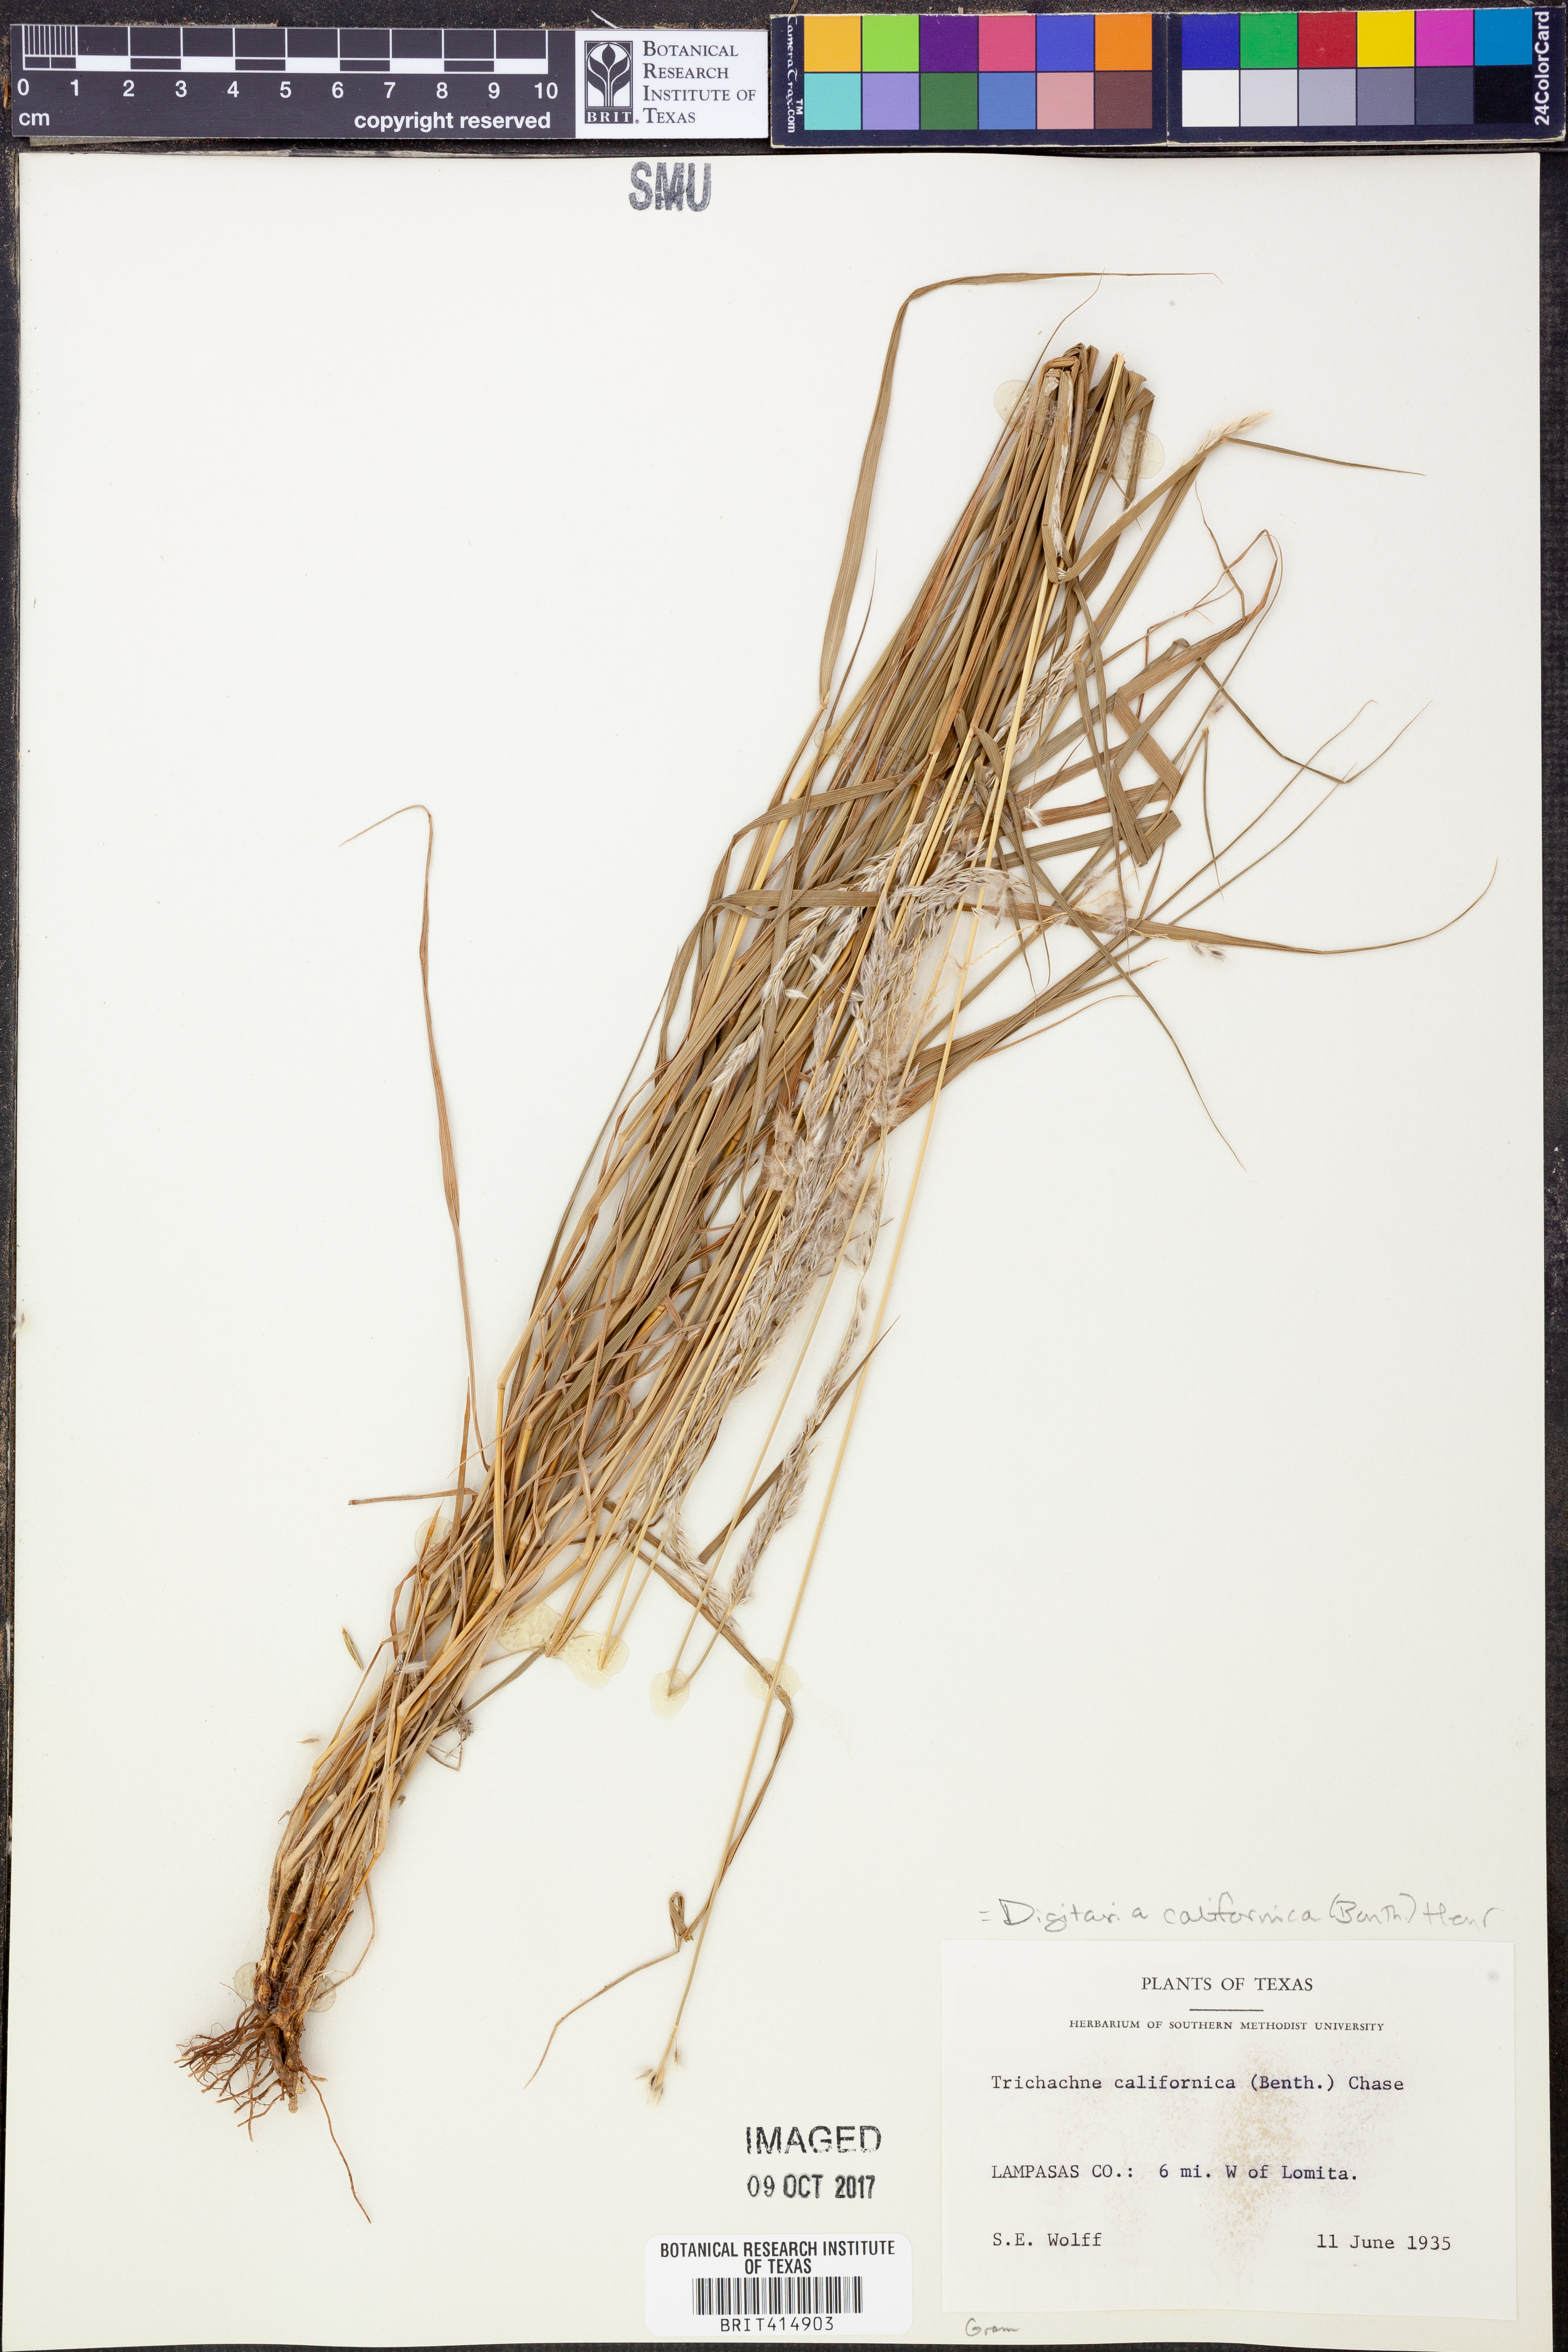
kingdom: Plantae
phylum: Tracheophyta
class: Liliopsida
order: Poales
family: Poaceae
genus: Digitaria
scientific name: Digitaria californica
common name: Arizona cottontop
